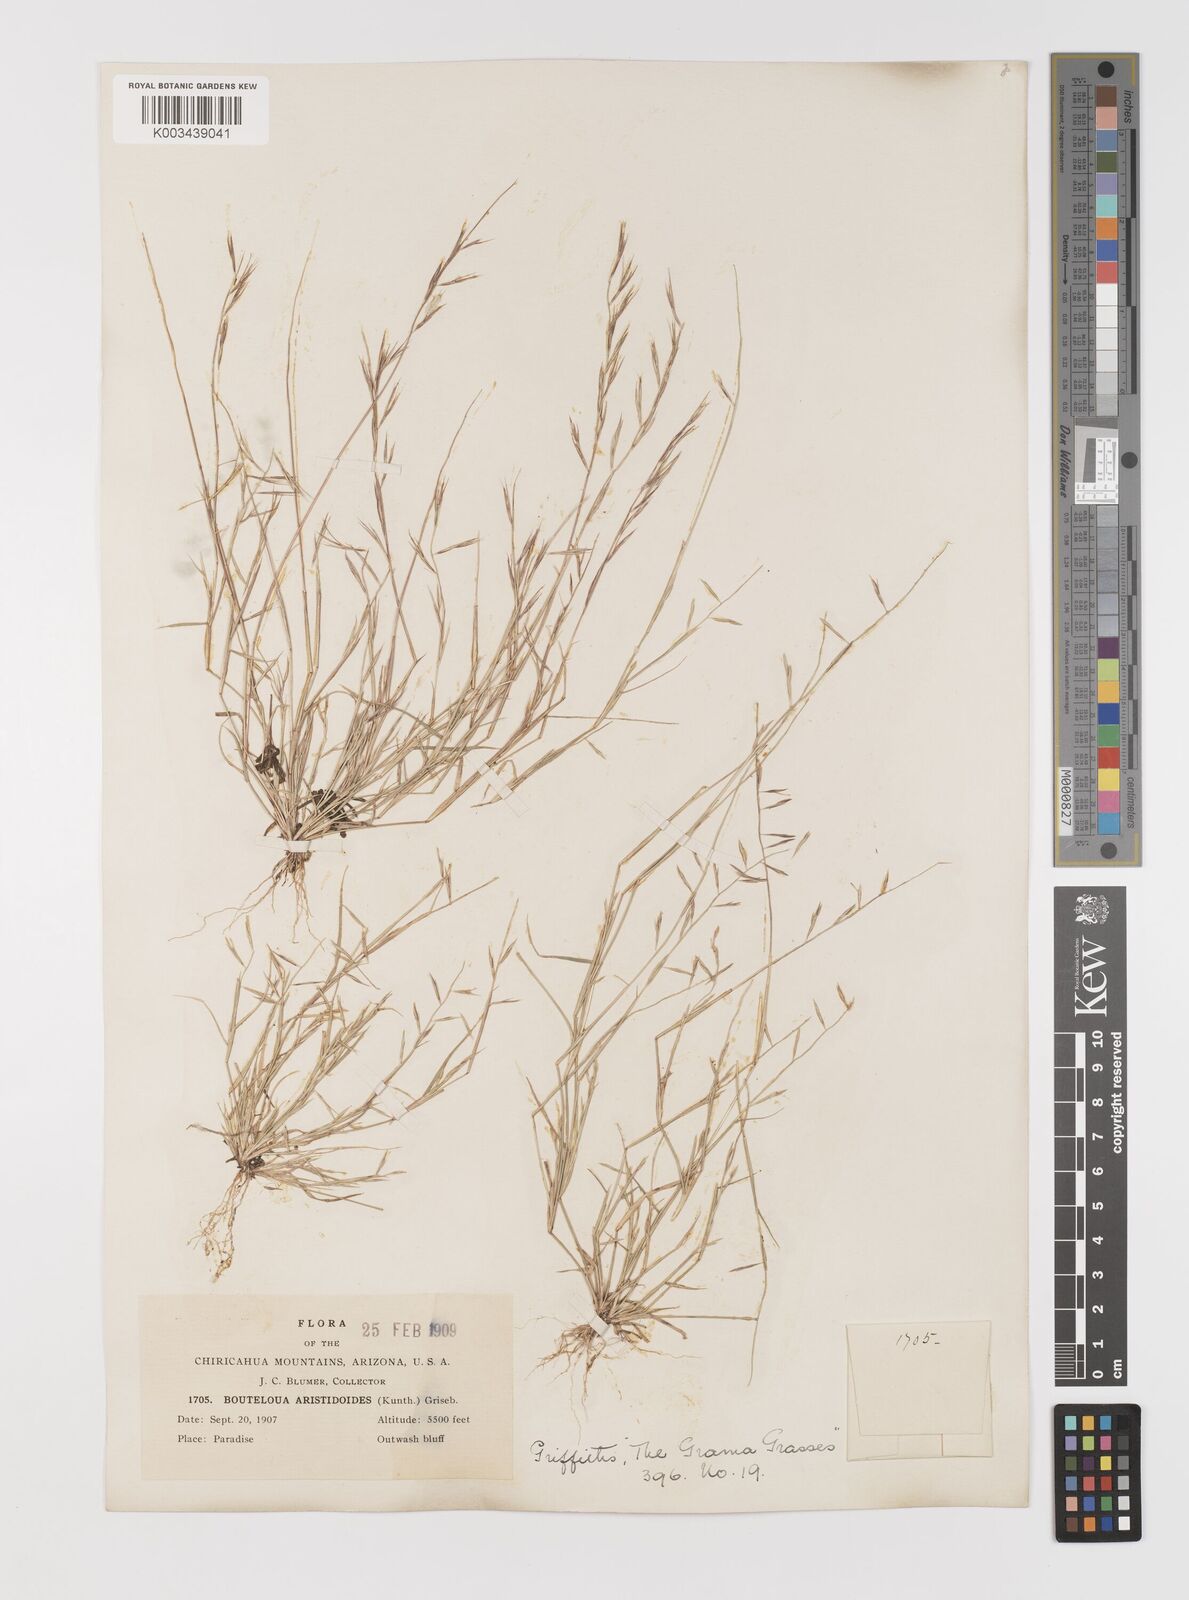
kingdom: Plantae
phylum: Tracheophyta
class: Liliopsida
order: Poales
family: Poaceae
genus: Bouteloua
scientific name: Bouteloua aristidoides
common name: Needle grama
